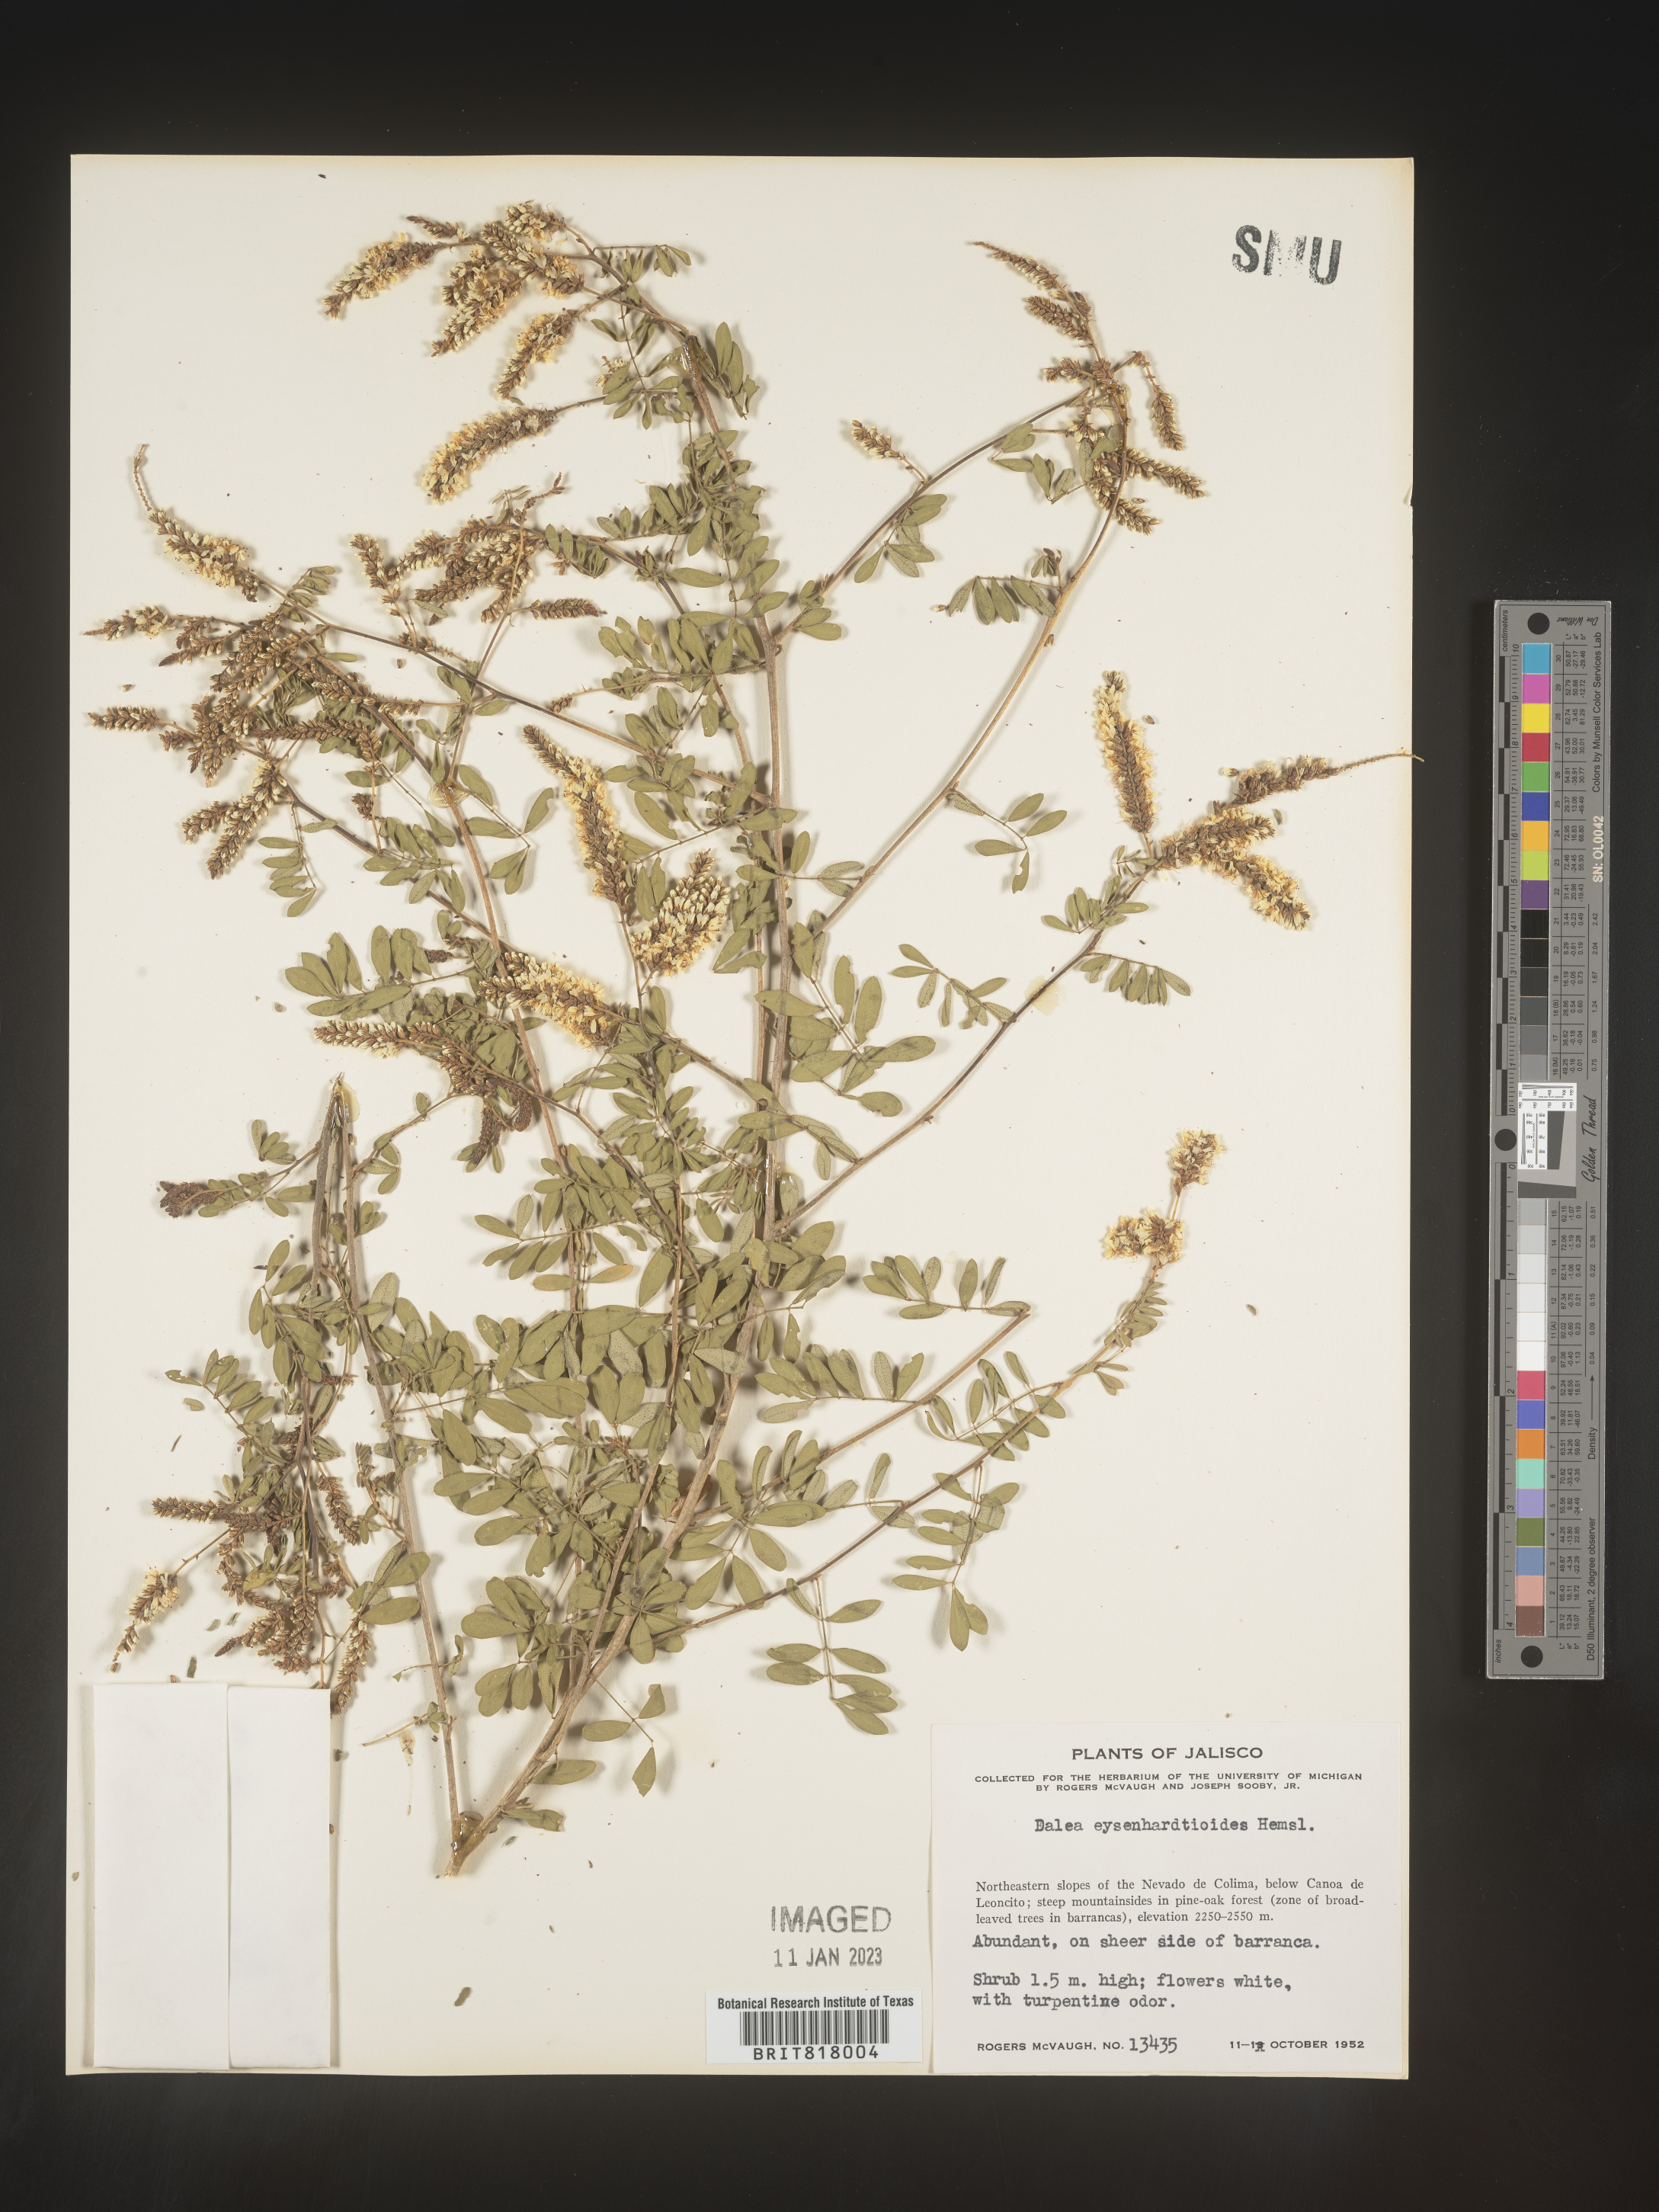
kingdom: Plantae
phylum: Tracheophyta
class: Magnoliopsida
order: Fabales
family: Fabaceae
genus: Dalea
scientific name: Dalea
